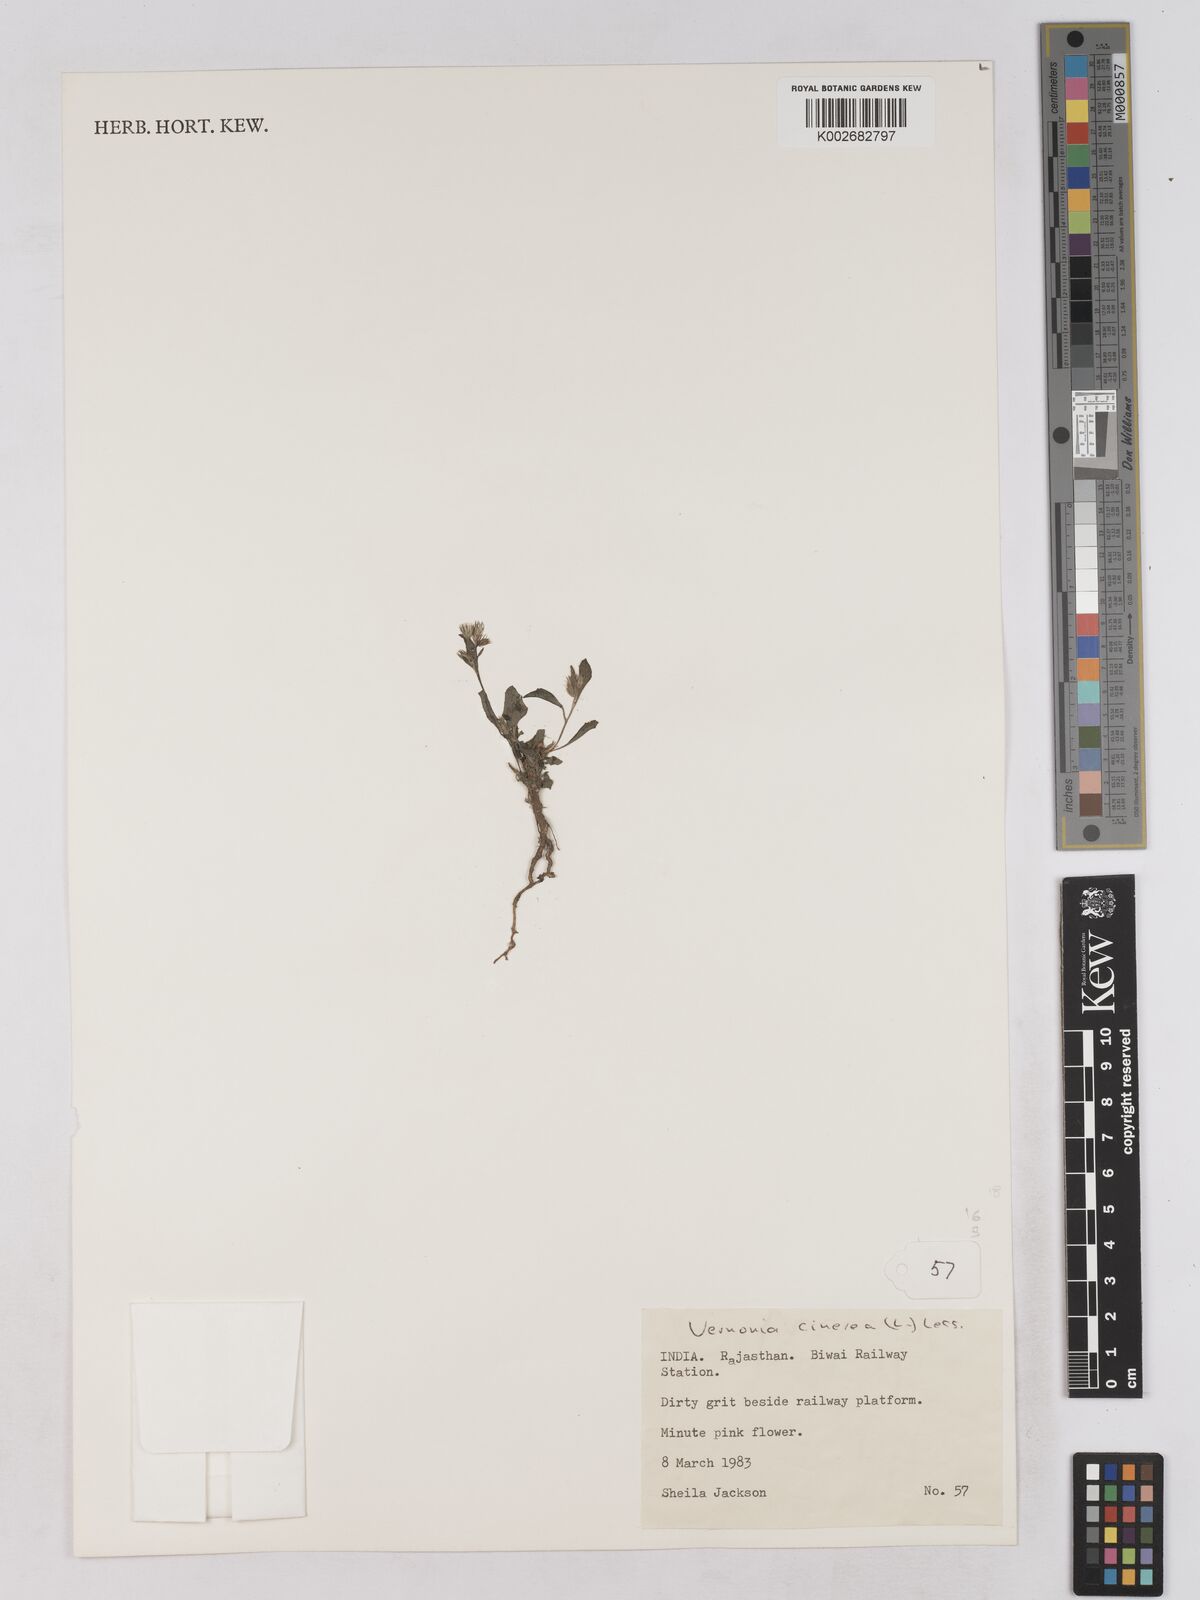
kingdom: Plantae
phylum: Tracheophyta
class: Magnoliopsida
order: Asterales
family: Asteraceae
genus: Cyanthillium
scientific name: Cyanthillium cinereum
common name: Little ironweed
